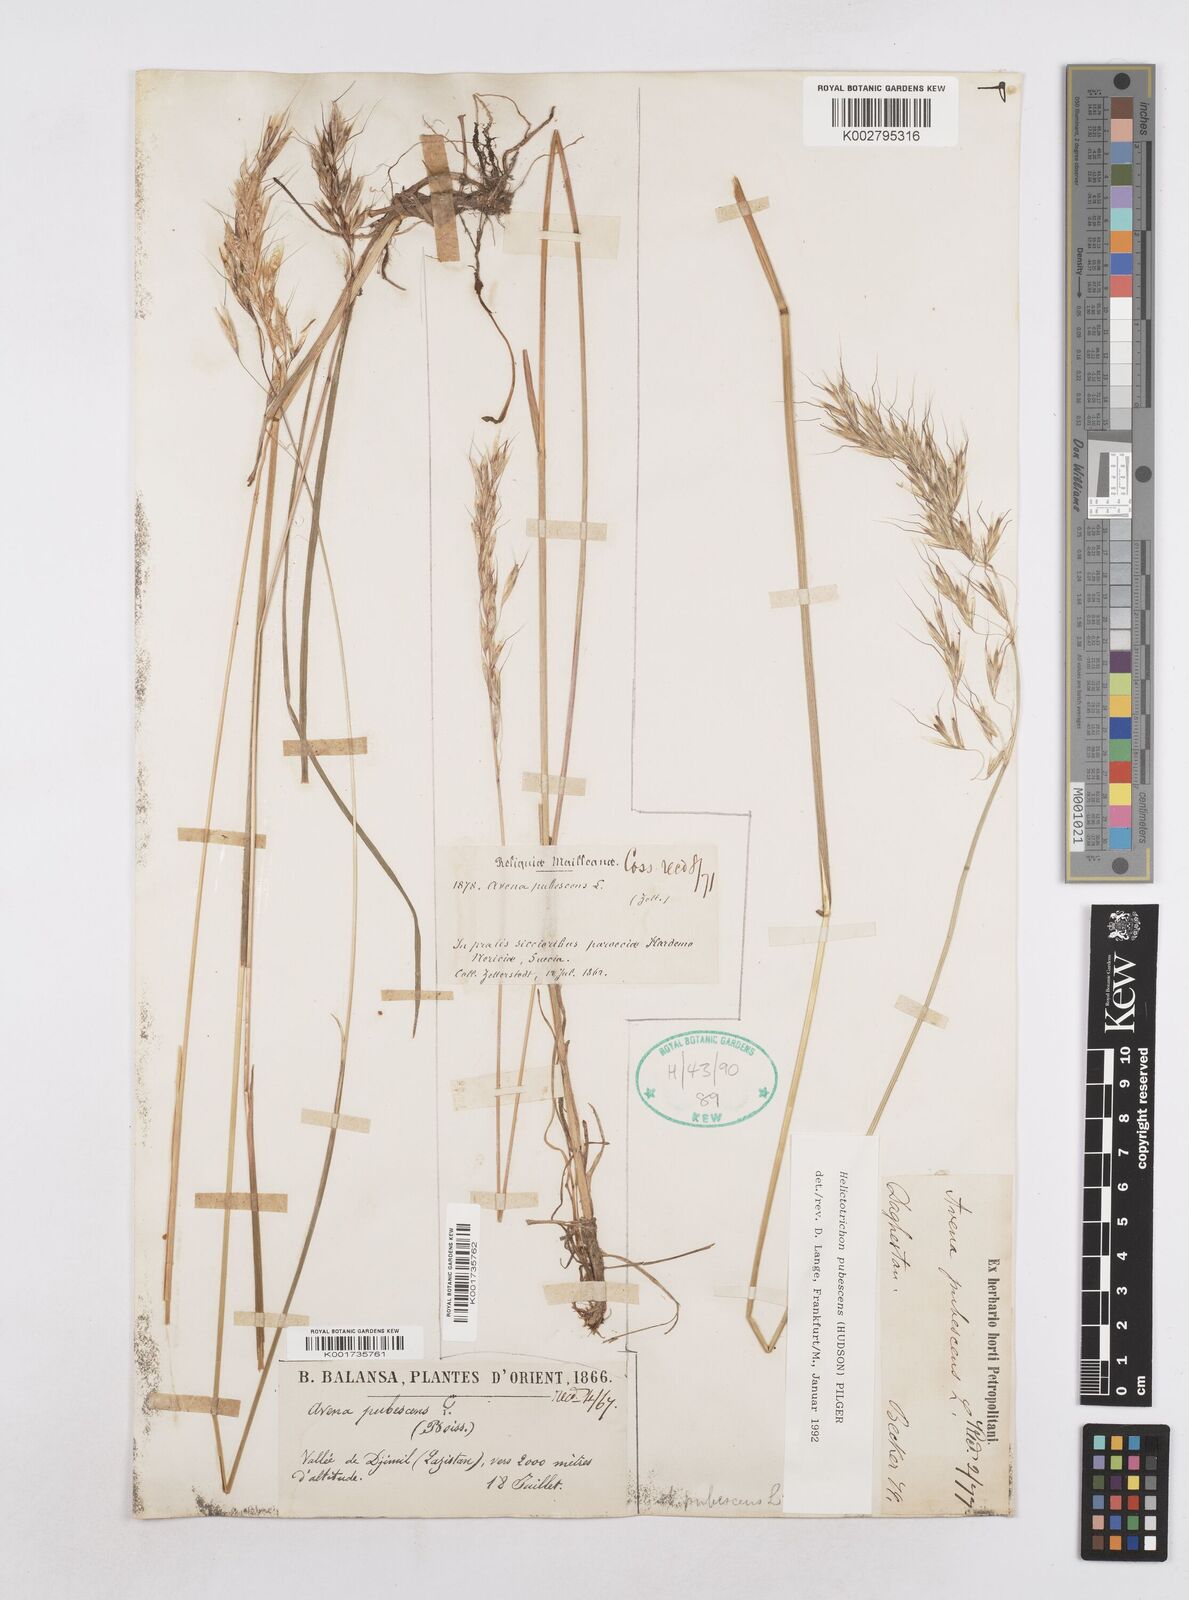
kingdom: Plantae
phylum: Tracheophyta
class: Liliopsida
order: Poales
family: Poaceae
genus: Avenula
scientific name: Avenula pubescens
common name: Downy alpine oatgrass
